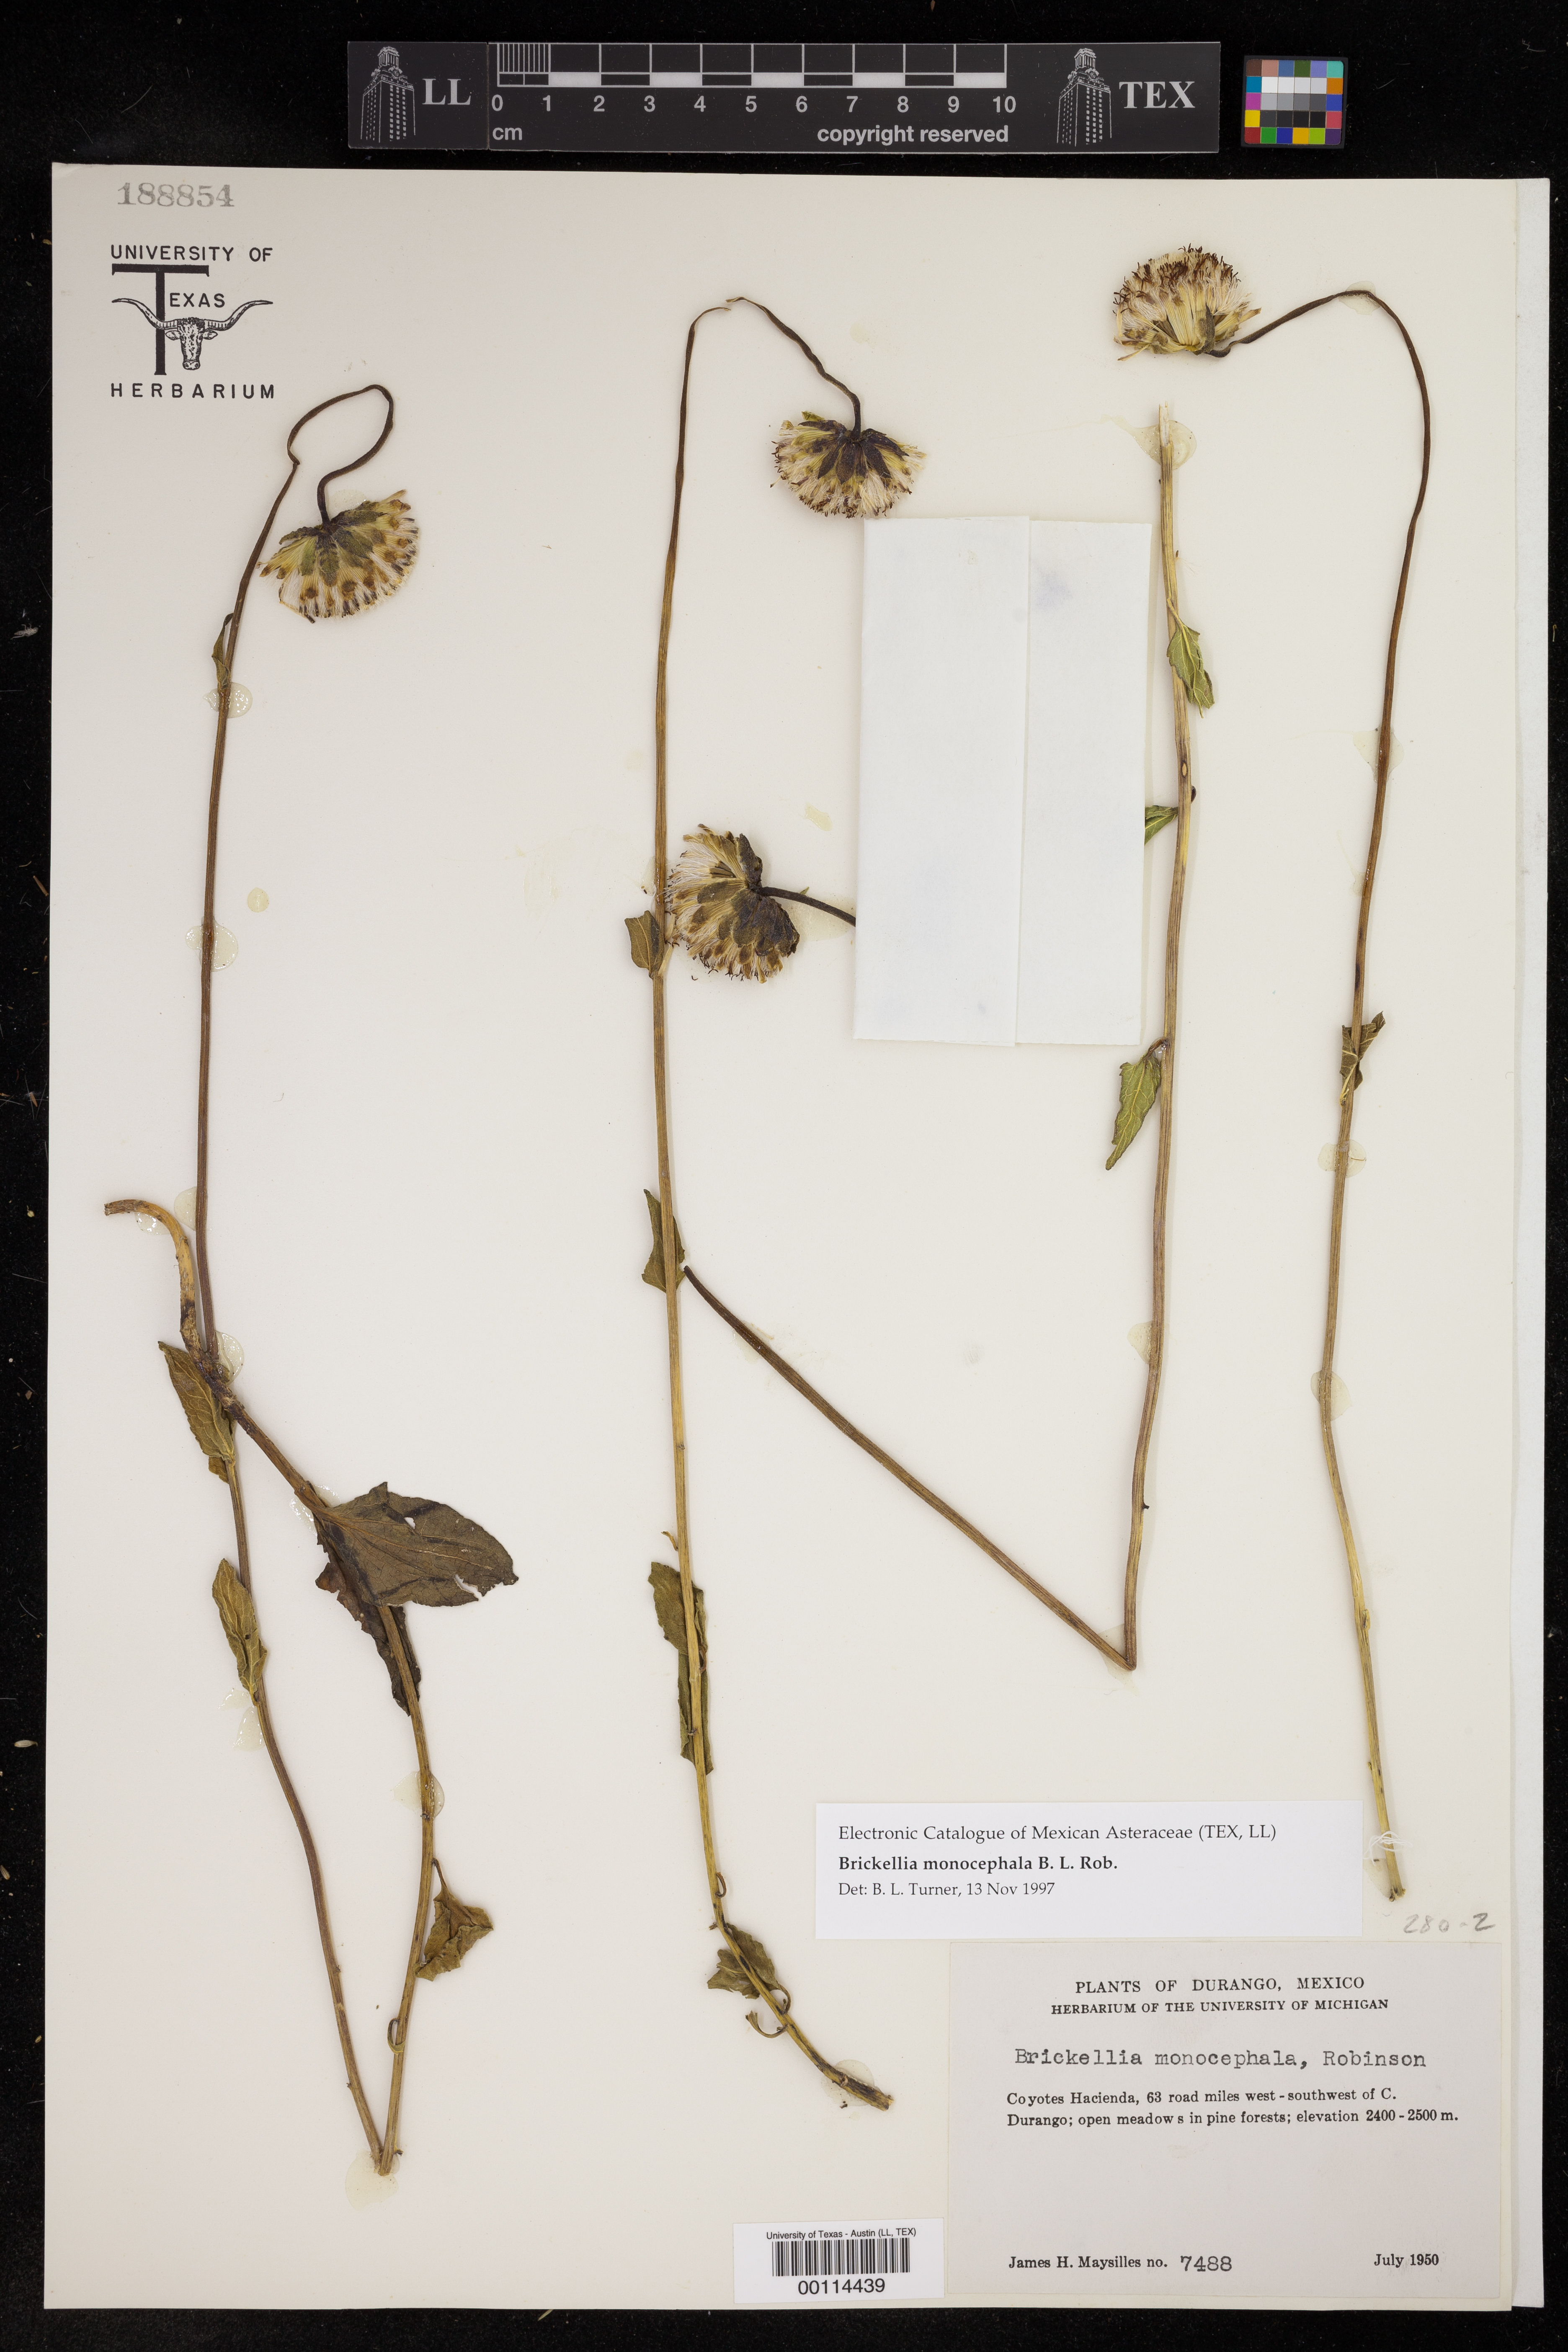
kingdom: Plantae
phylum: Tracheophyta
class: Magnoliopsida
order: Asterales
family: Asteraceae
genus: Brickellia
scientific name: Brickellia monocephala
